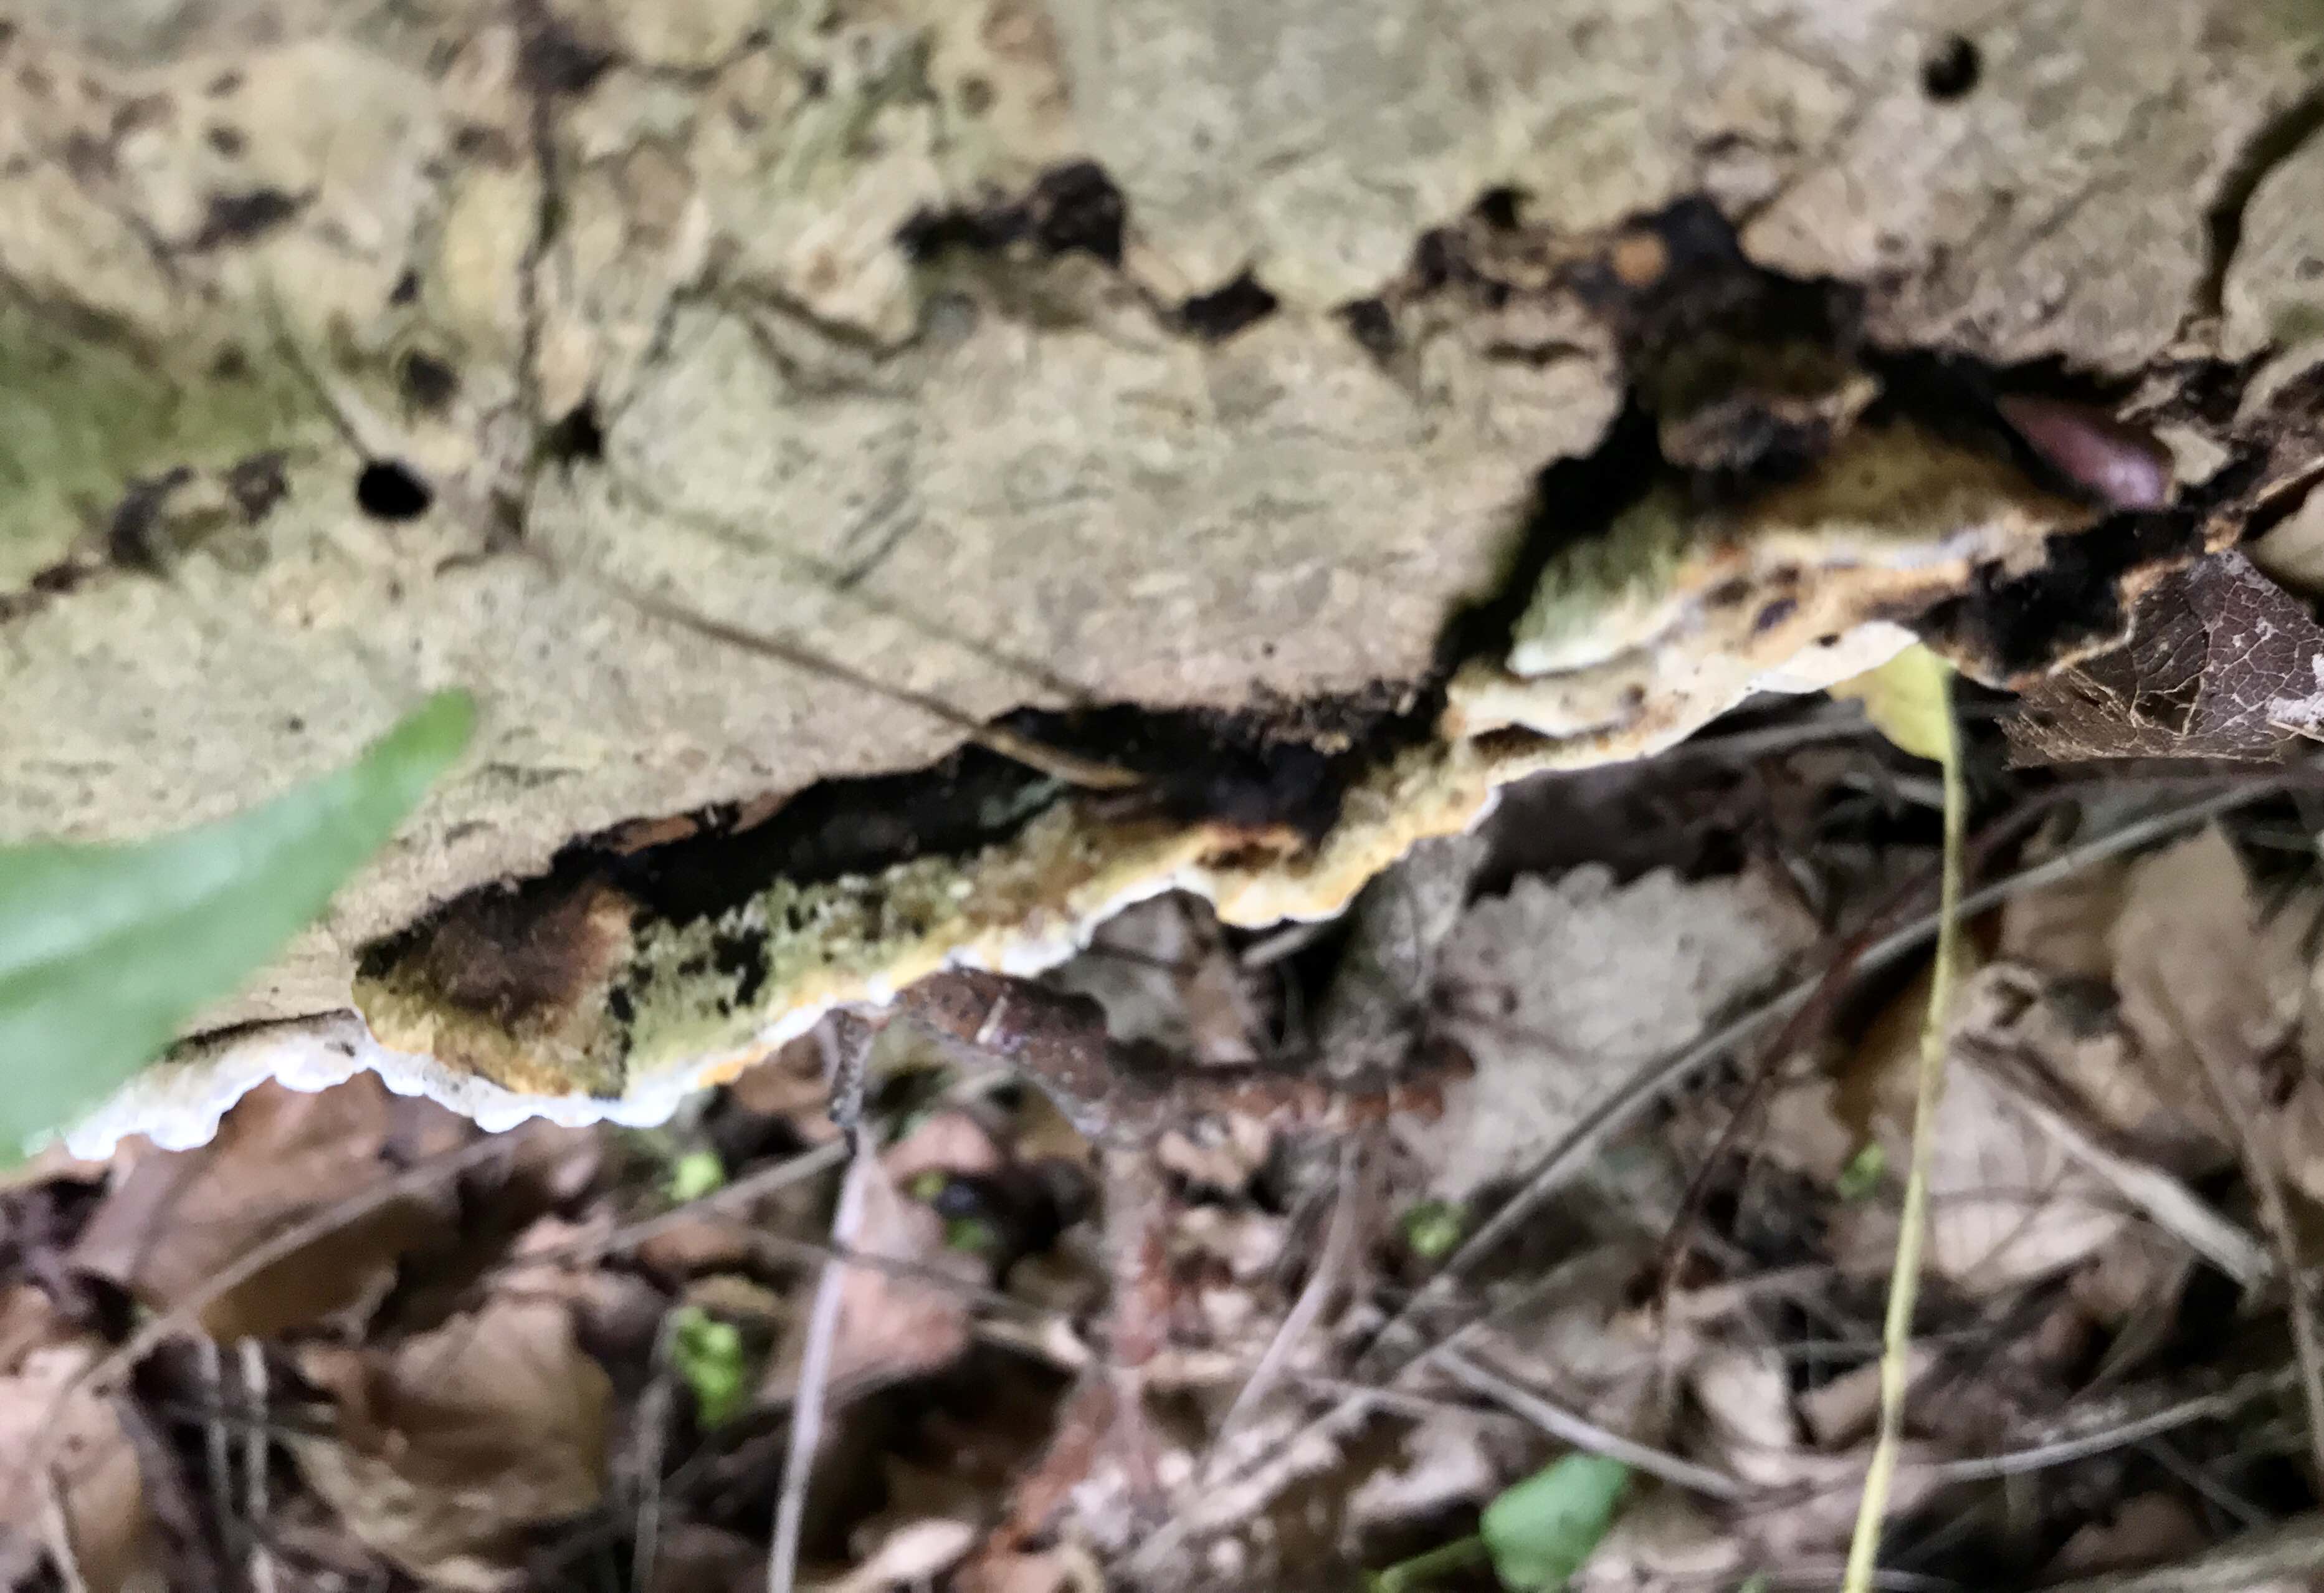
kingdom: Fungi
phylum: Basidiomycota
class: Agaricomycetes
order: Polyporales
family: Incrustoporiaceae
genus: Skeletocutis
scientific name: Skeletocutis nemoralis
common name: stor krystalporesvamp
